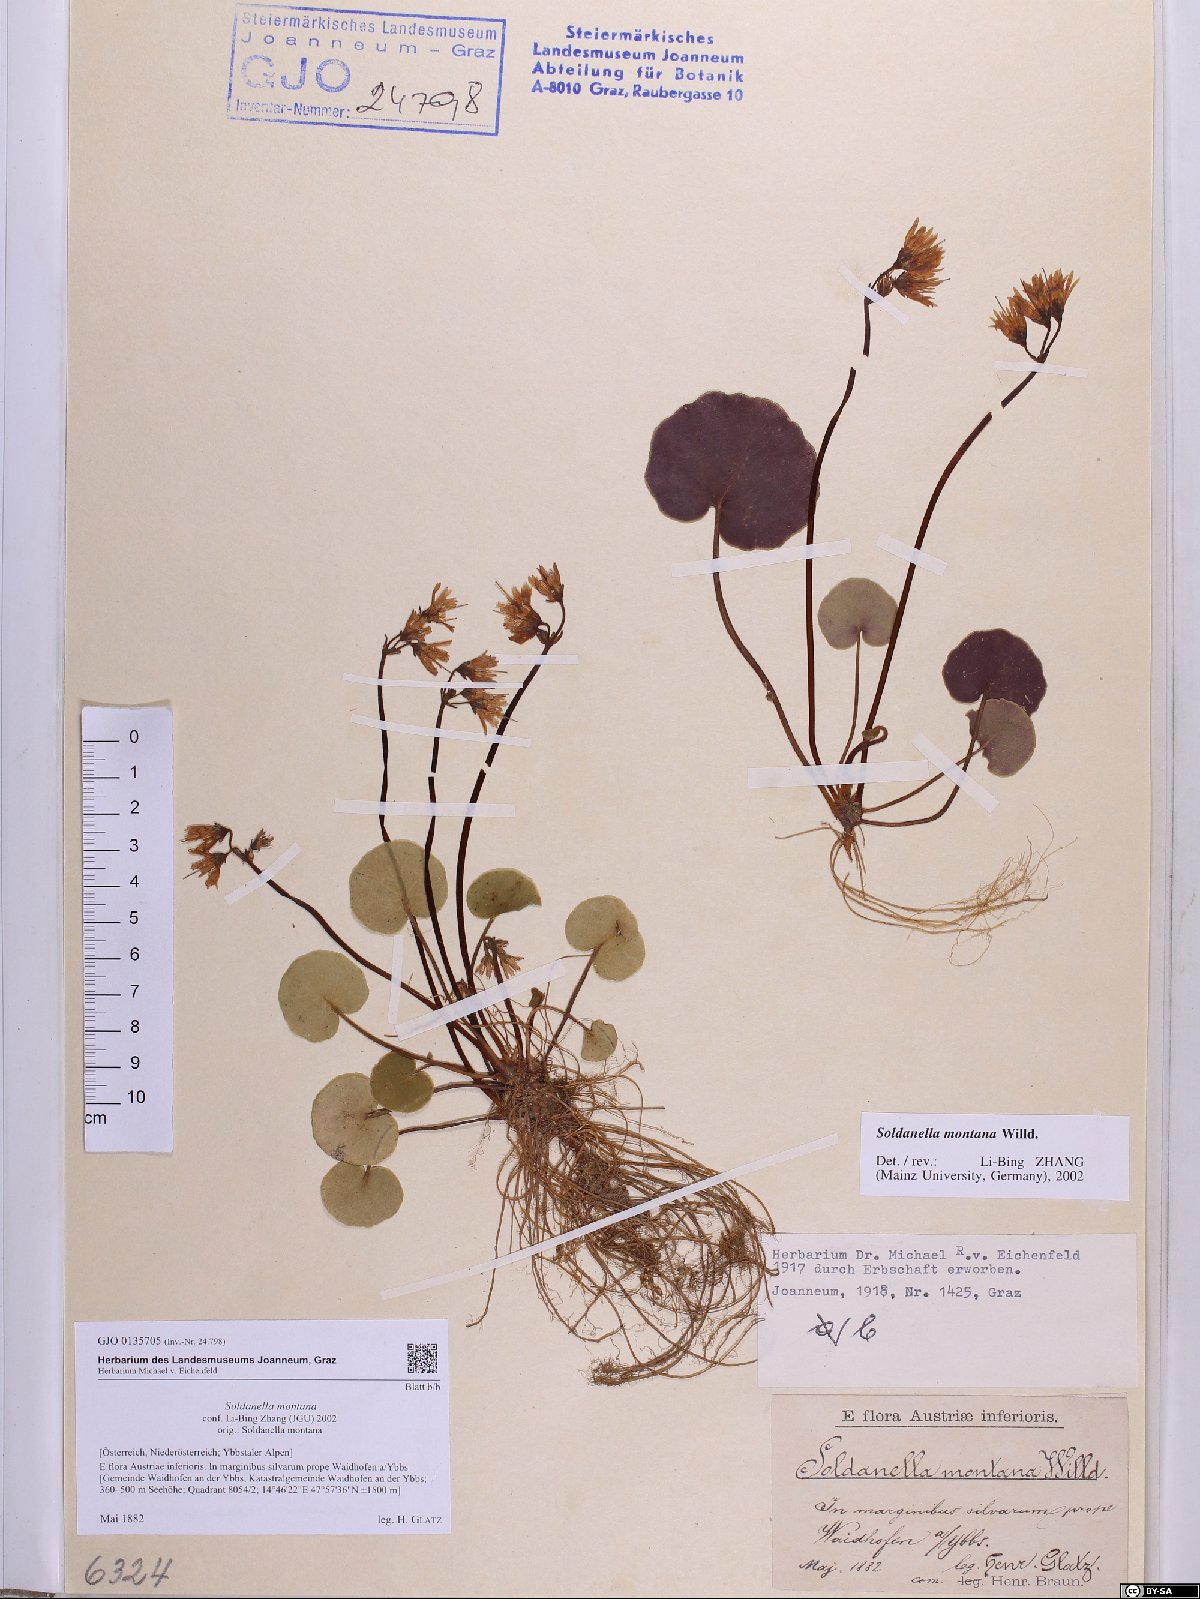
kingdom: Plantae
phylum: Tracheophyta
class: Magnoliopsida
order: Ericales
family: Primulaceae
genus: Soldanella
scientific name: Soldanella montana
